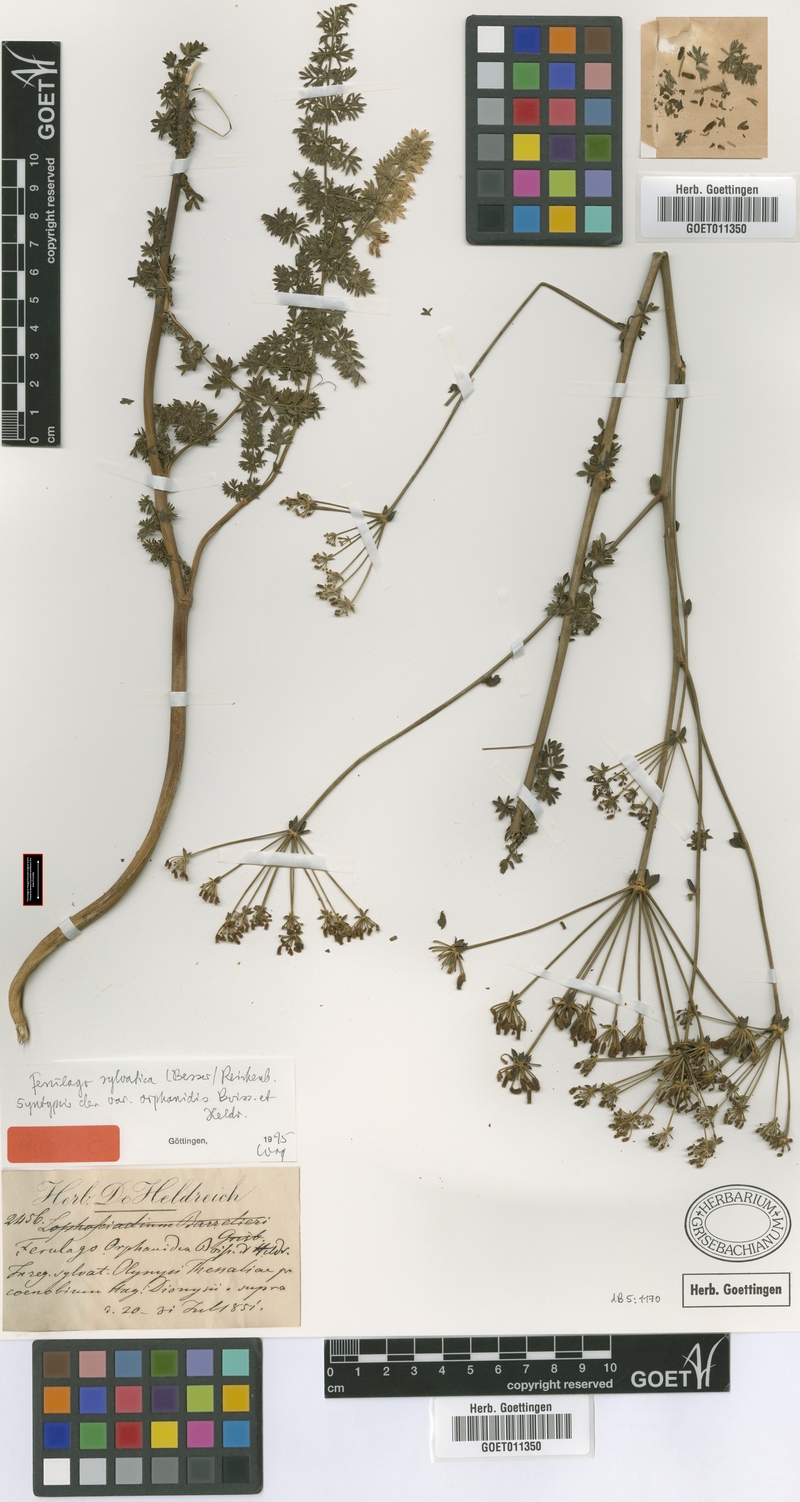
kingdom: Plantae
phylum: Tracheophyta
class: Magnoliopsida
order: Apiales
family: Apiaceae
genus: Ferulago
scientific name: Ferulago sylvatica
